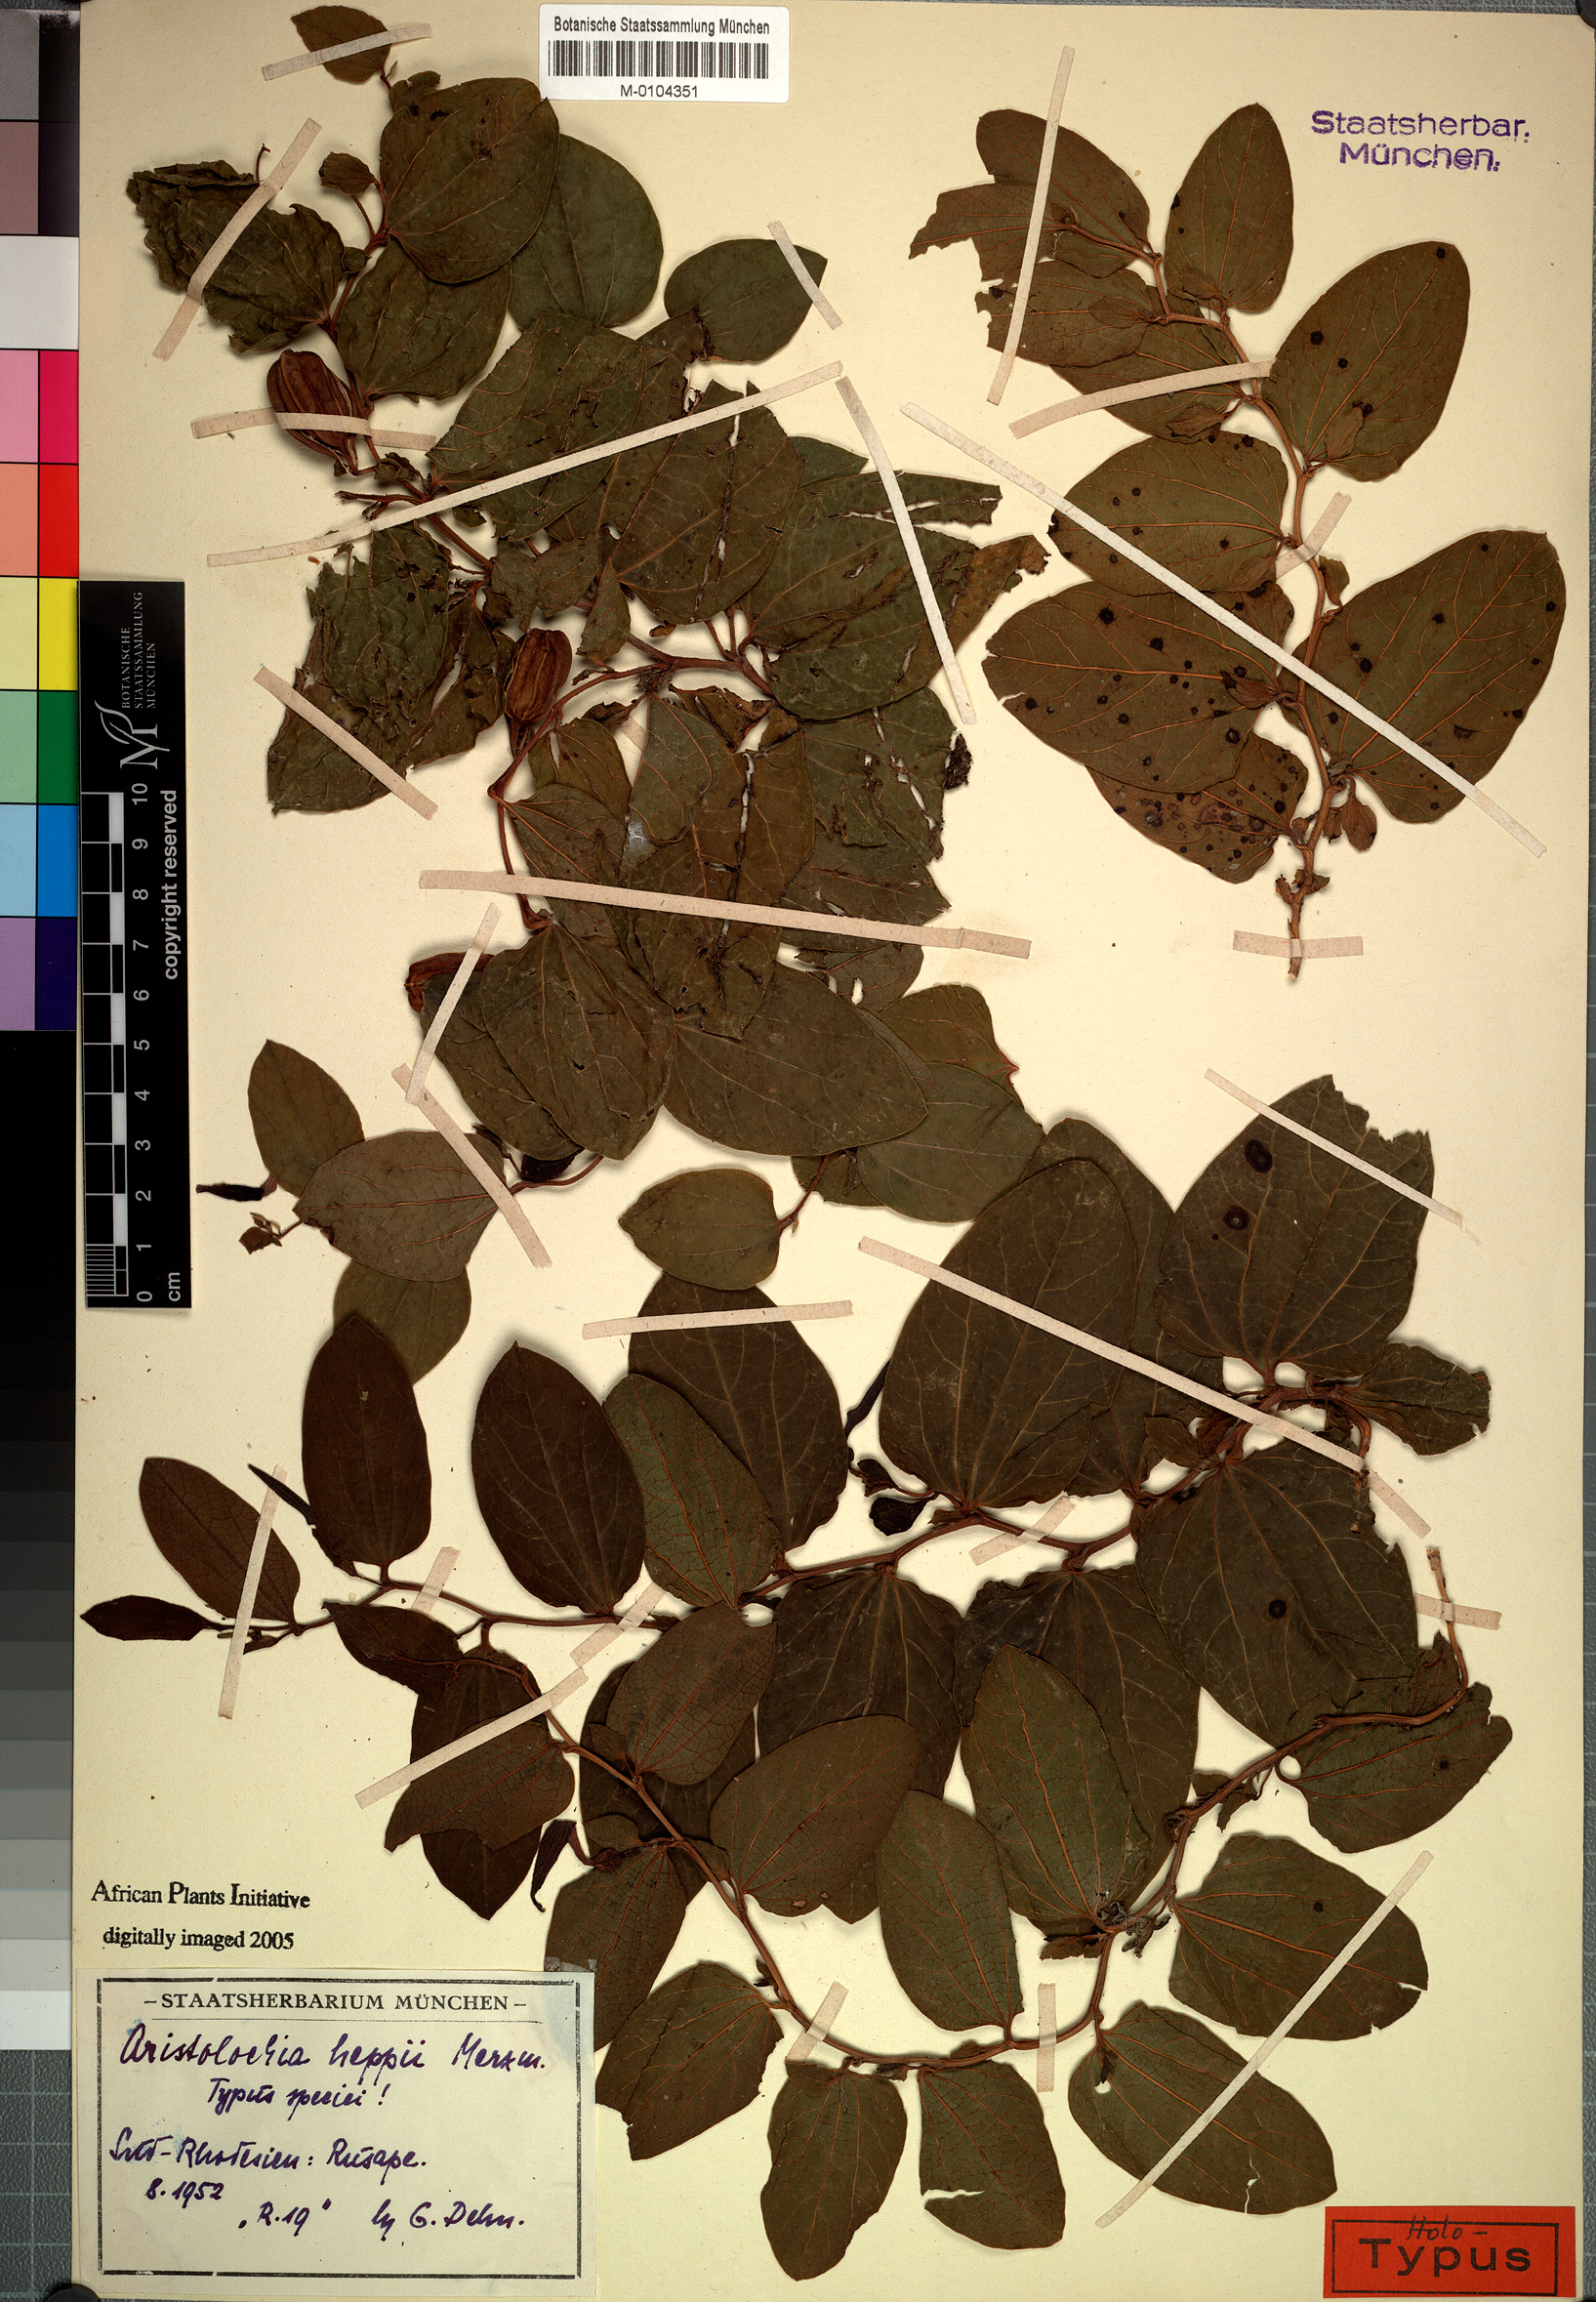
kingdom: Plantae
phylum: Tracheophyta
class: Magnoliopsida
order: Piperales
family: Aristolochiaceae
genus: Aristolochia
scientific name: Aristolochia heppii
